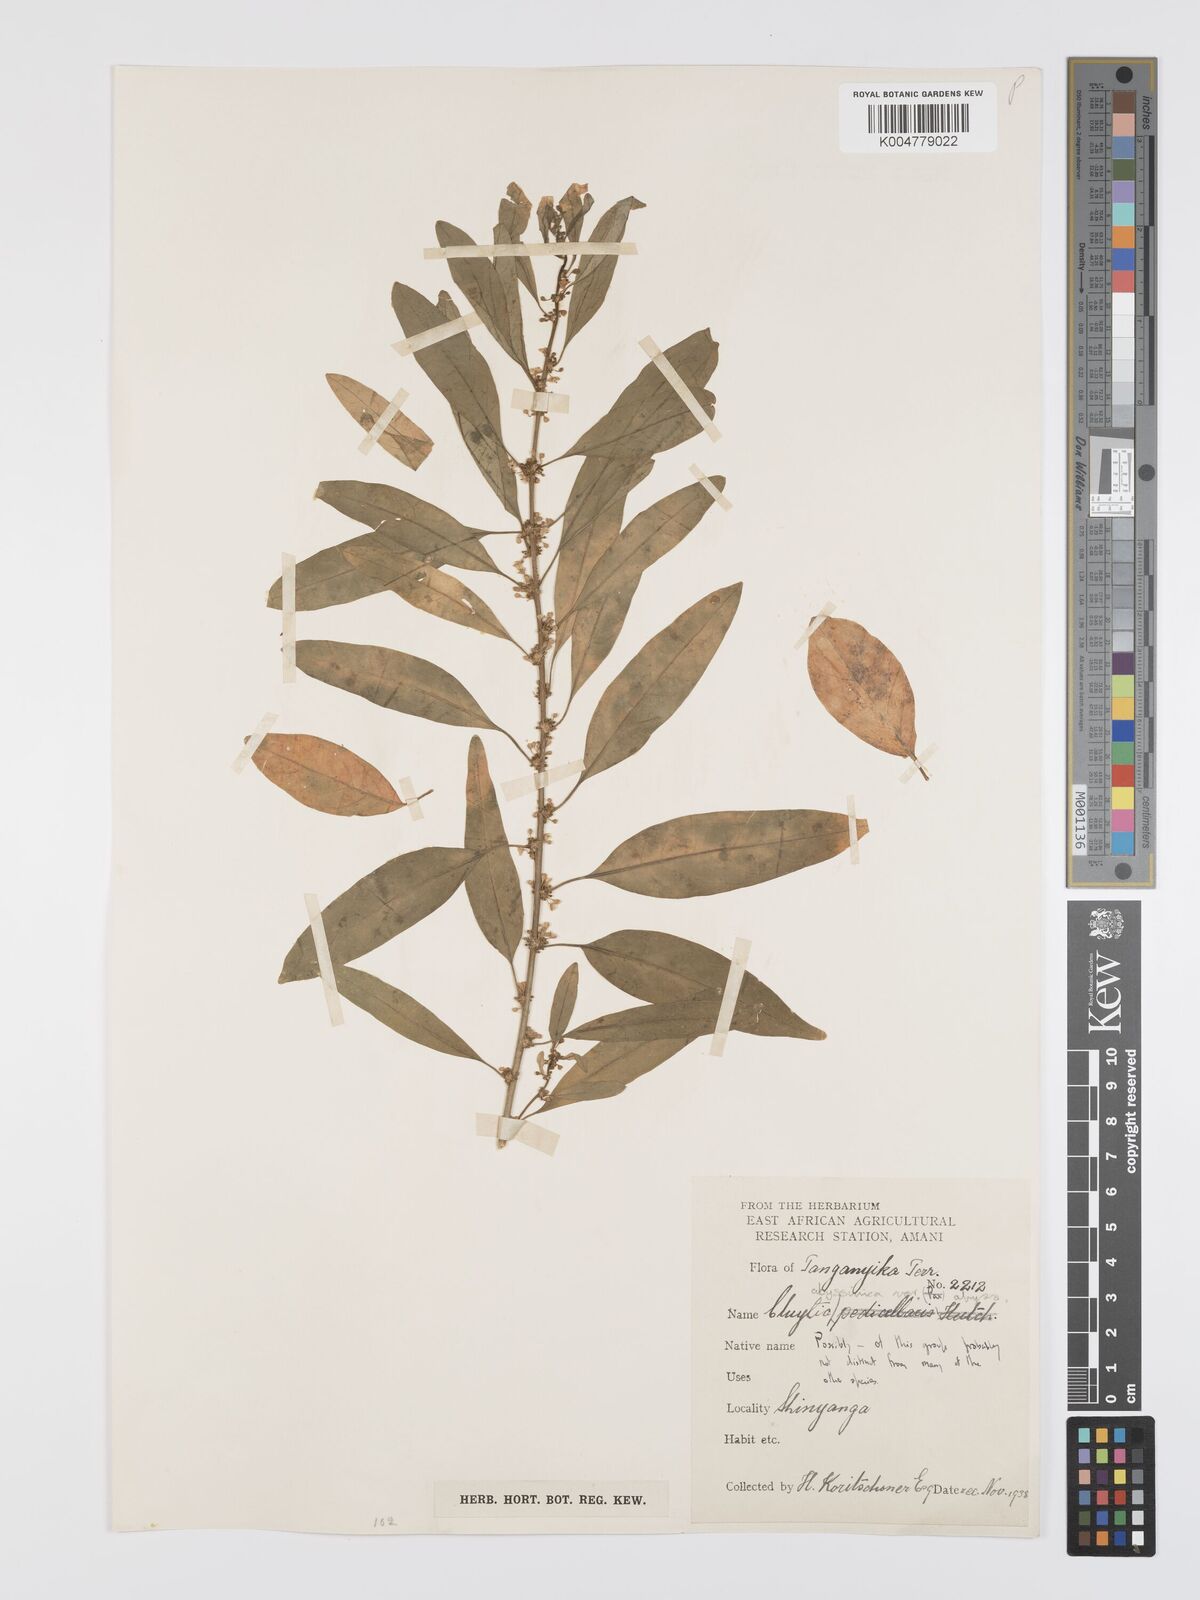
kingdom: Plantae
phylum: Tracheophyta
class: Magnoliopsida
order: Malpighiales
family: Peraceae
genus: Clutia
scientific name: Clutia abyssinica
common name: Large lightning bush
